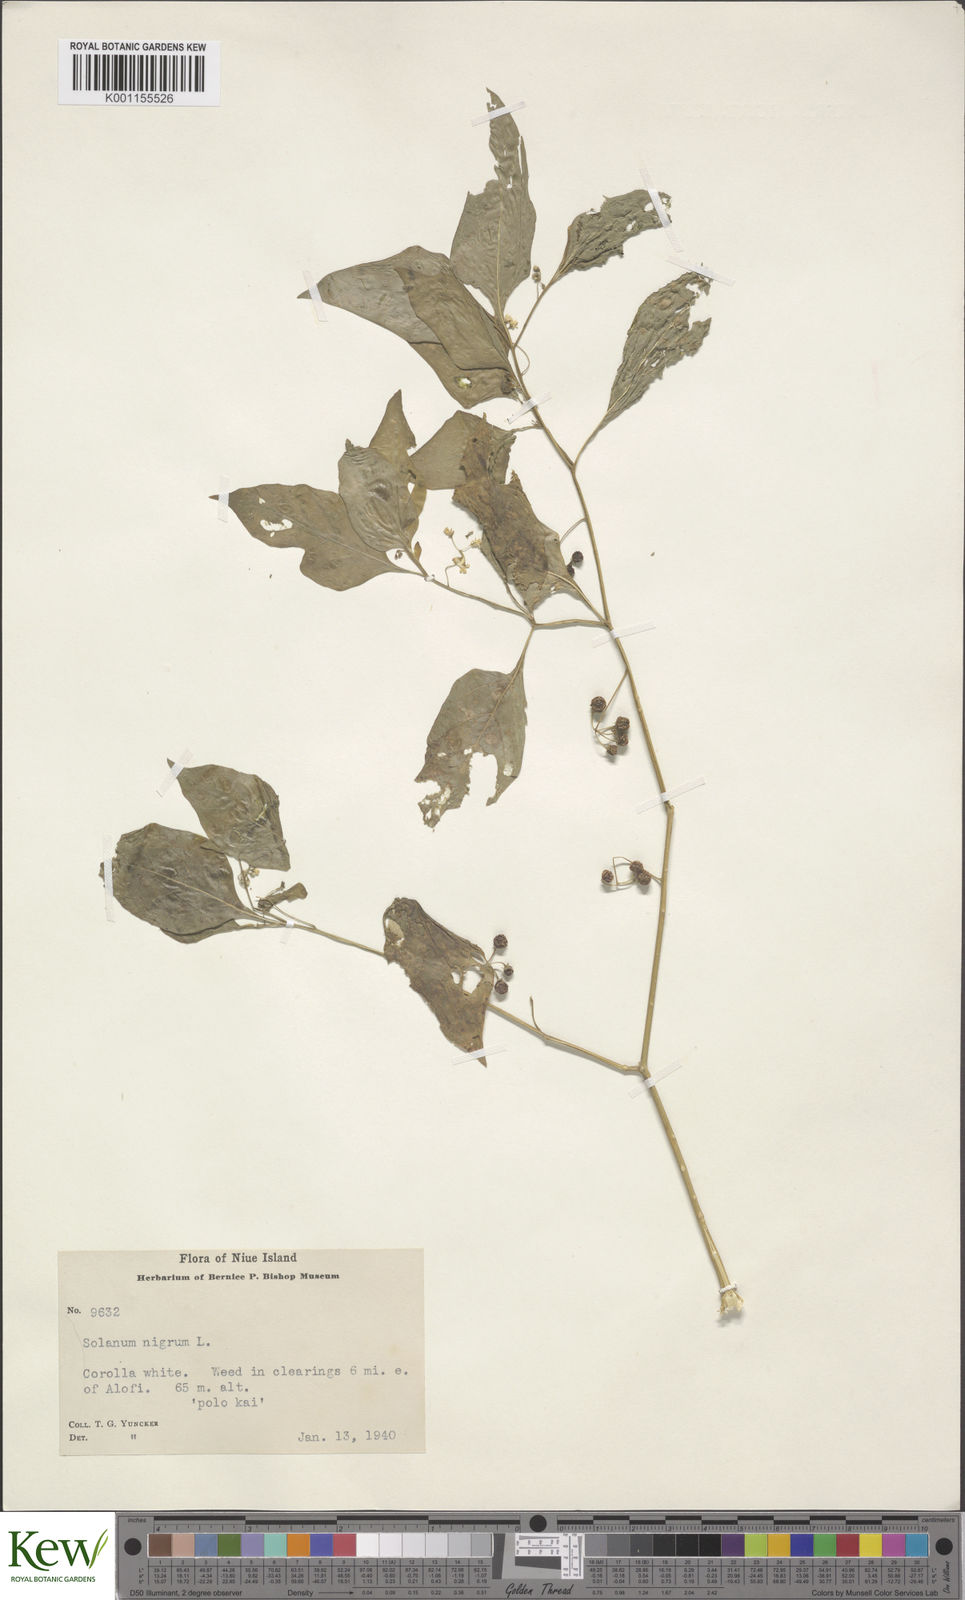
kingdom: Plantae
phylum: Tracheophyta
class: Magnoliopsida
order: Solanales
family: Solanaceae
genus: Solanum
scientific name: Solanum americanum
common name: American black nightshade
